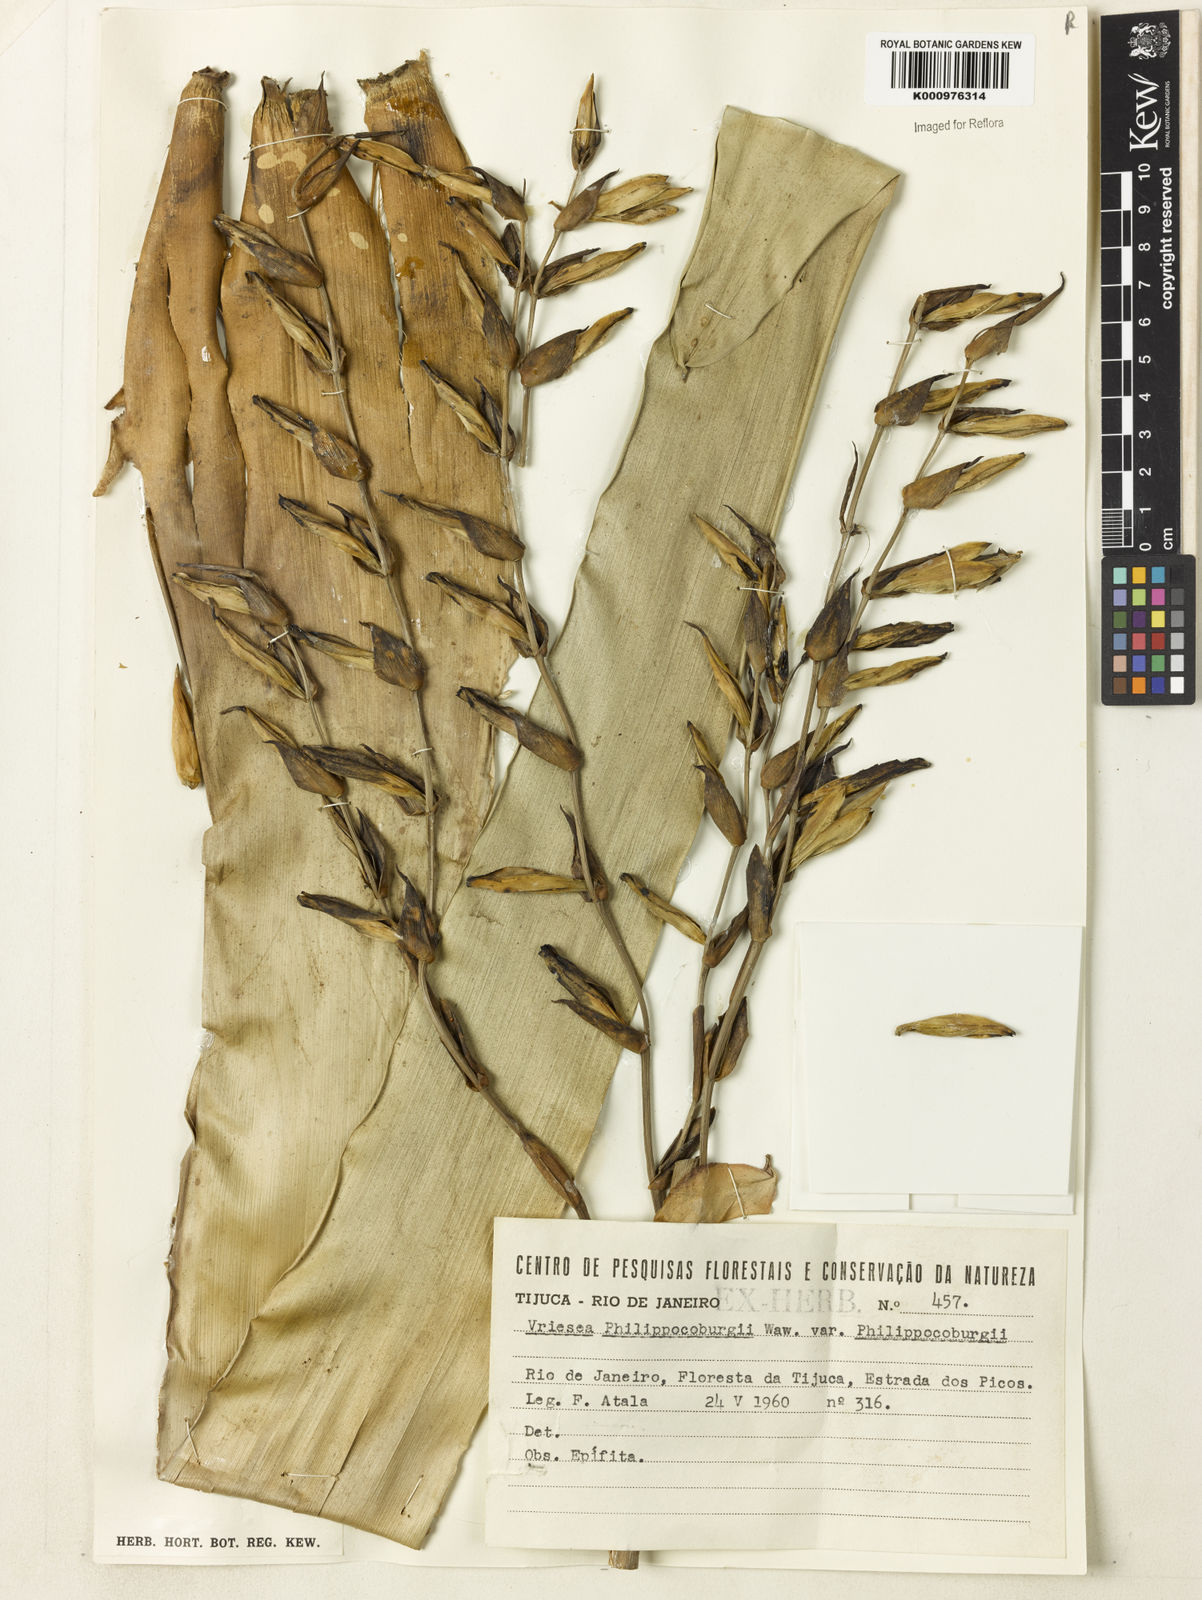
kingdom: Plantae
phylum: Tracheophyta
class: Liliopsida
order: Poales
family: Bromeliaceae
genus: Vriesea
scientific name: Vriesea philippocoburgi
